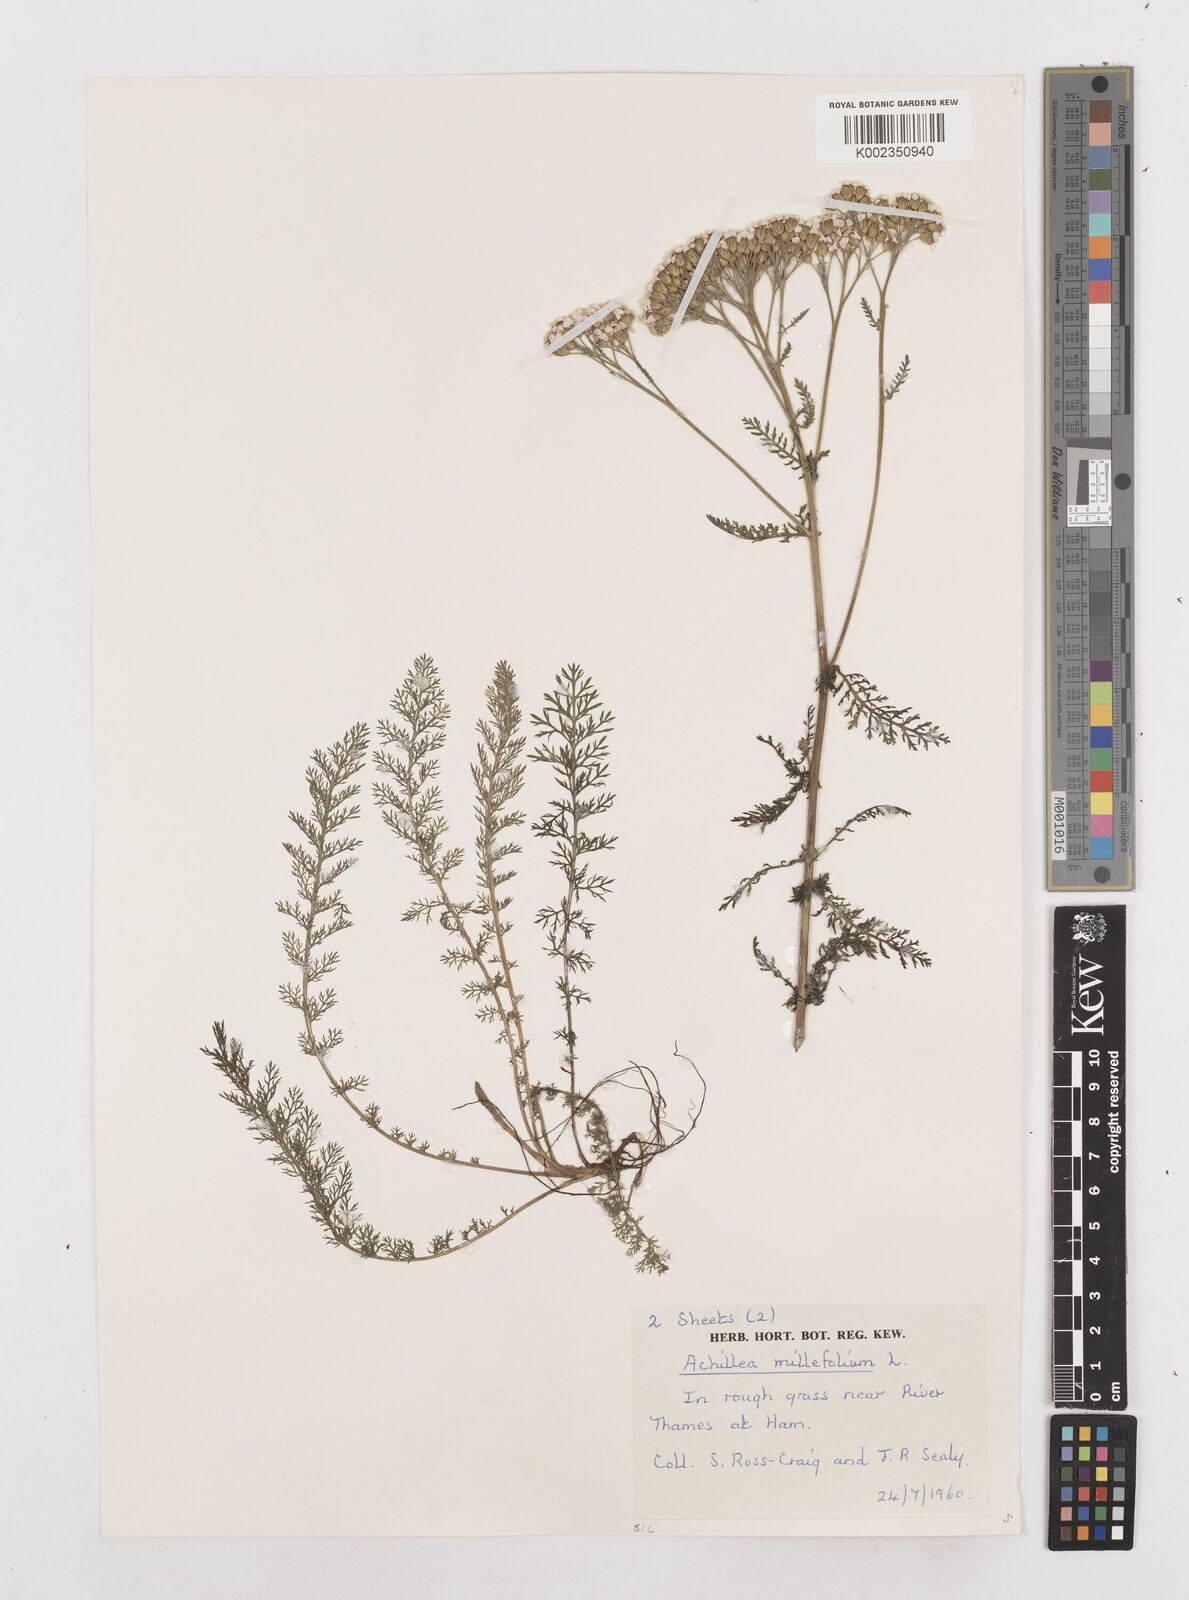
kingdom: Plantae
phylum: Tracheophyta
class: Magnoliopsida
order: Asterales
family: Asteraceae
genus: Achillea
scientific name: Achillea millefolium
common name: Yarrow
